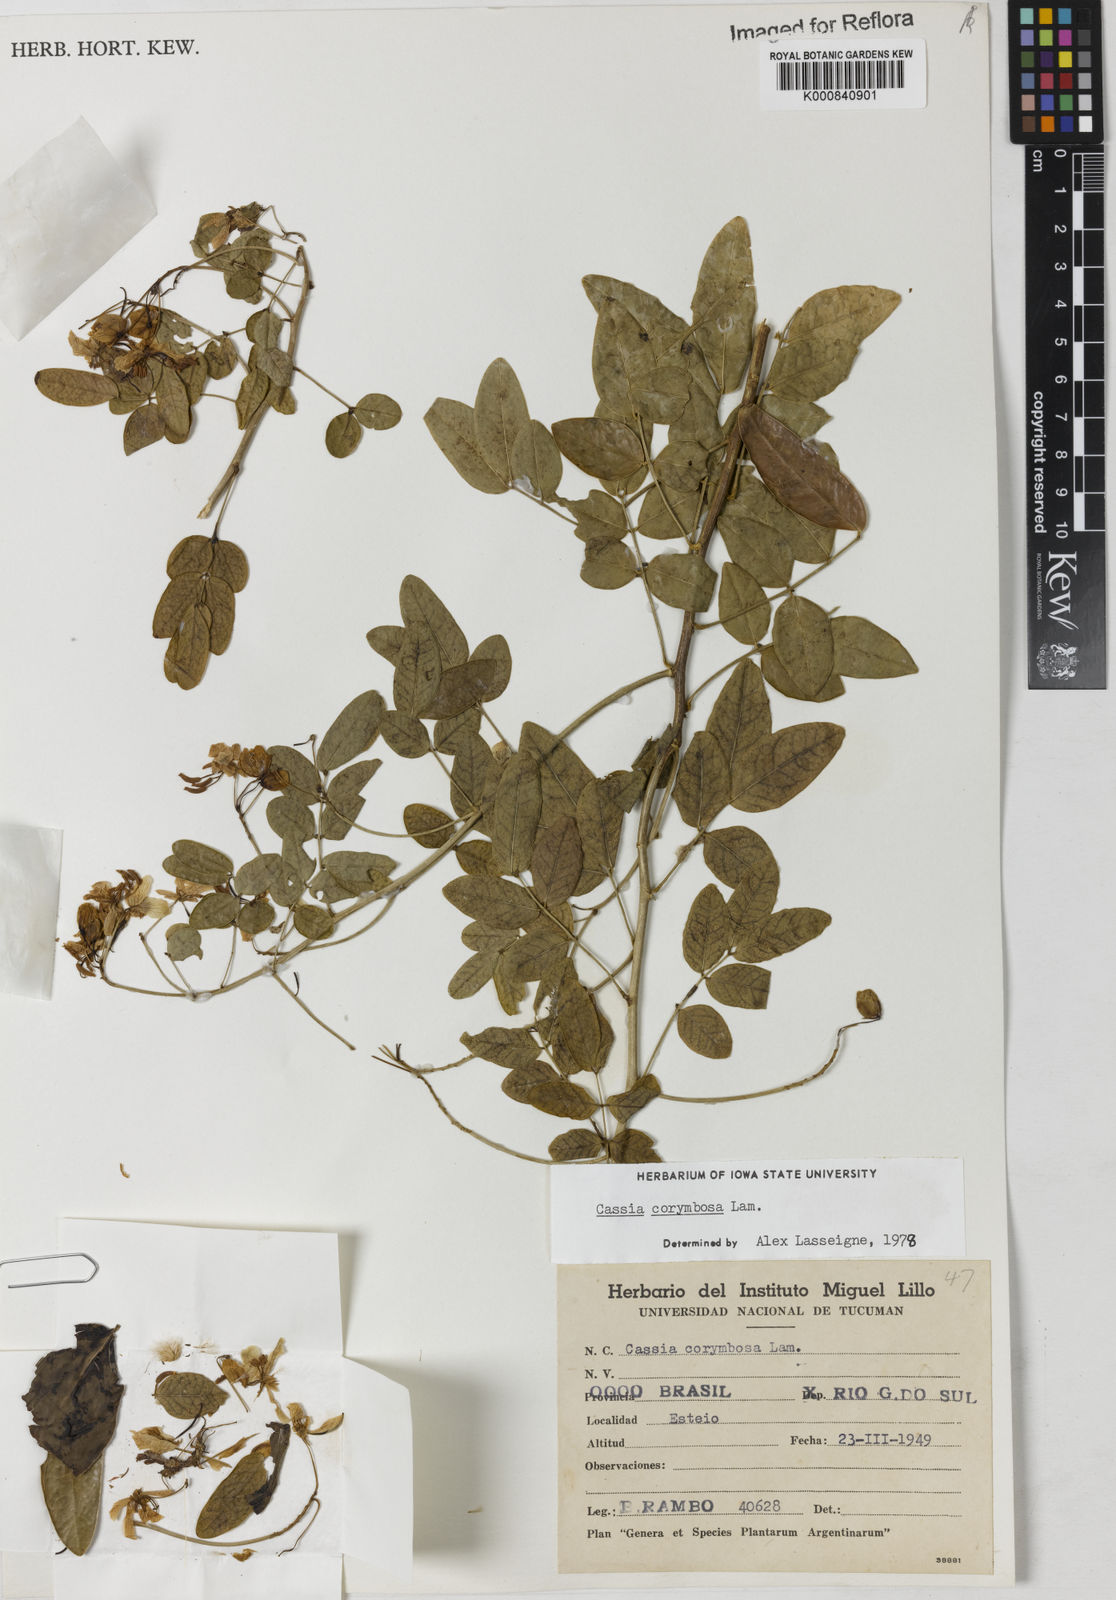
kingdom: Plantae
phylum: Tracheophyta
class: Magnoliopsida
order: Fabales
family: Fabaceae
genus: Senna
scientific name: Senna corymbosa
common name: Argentine senna
